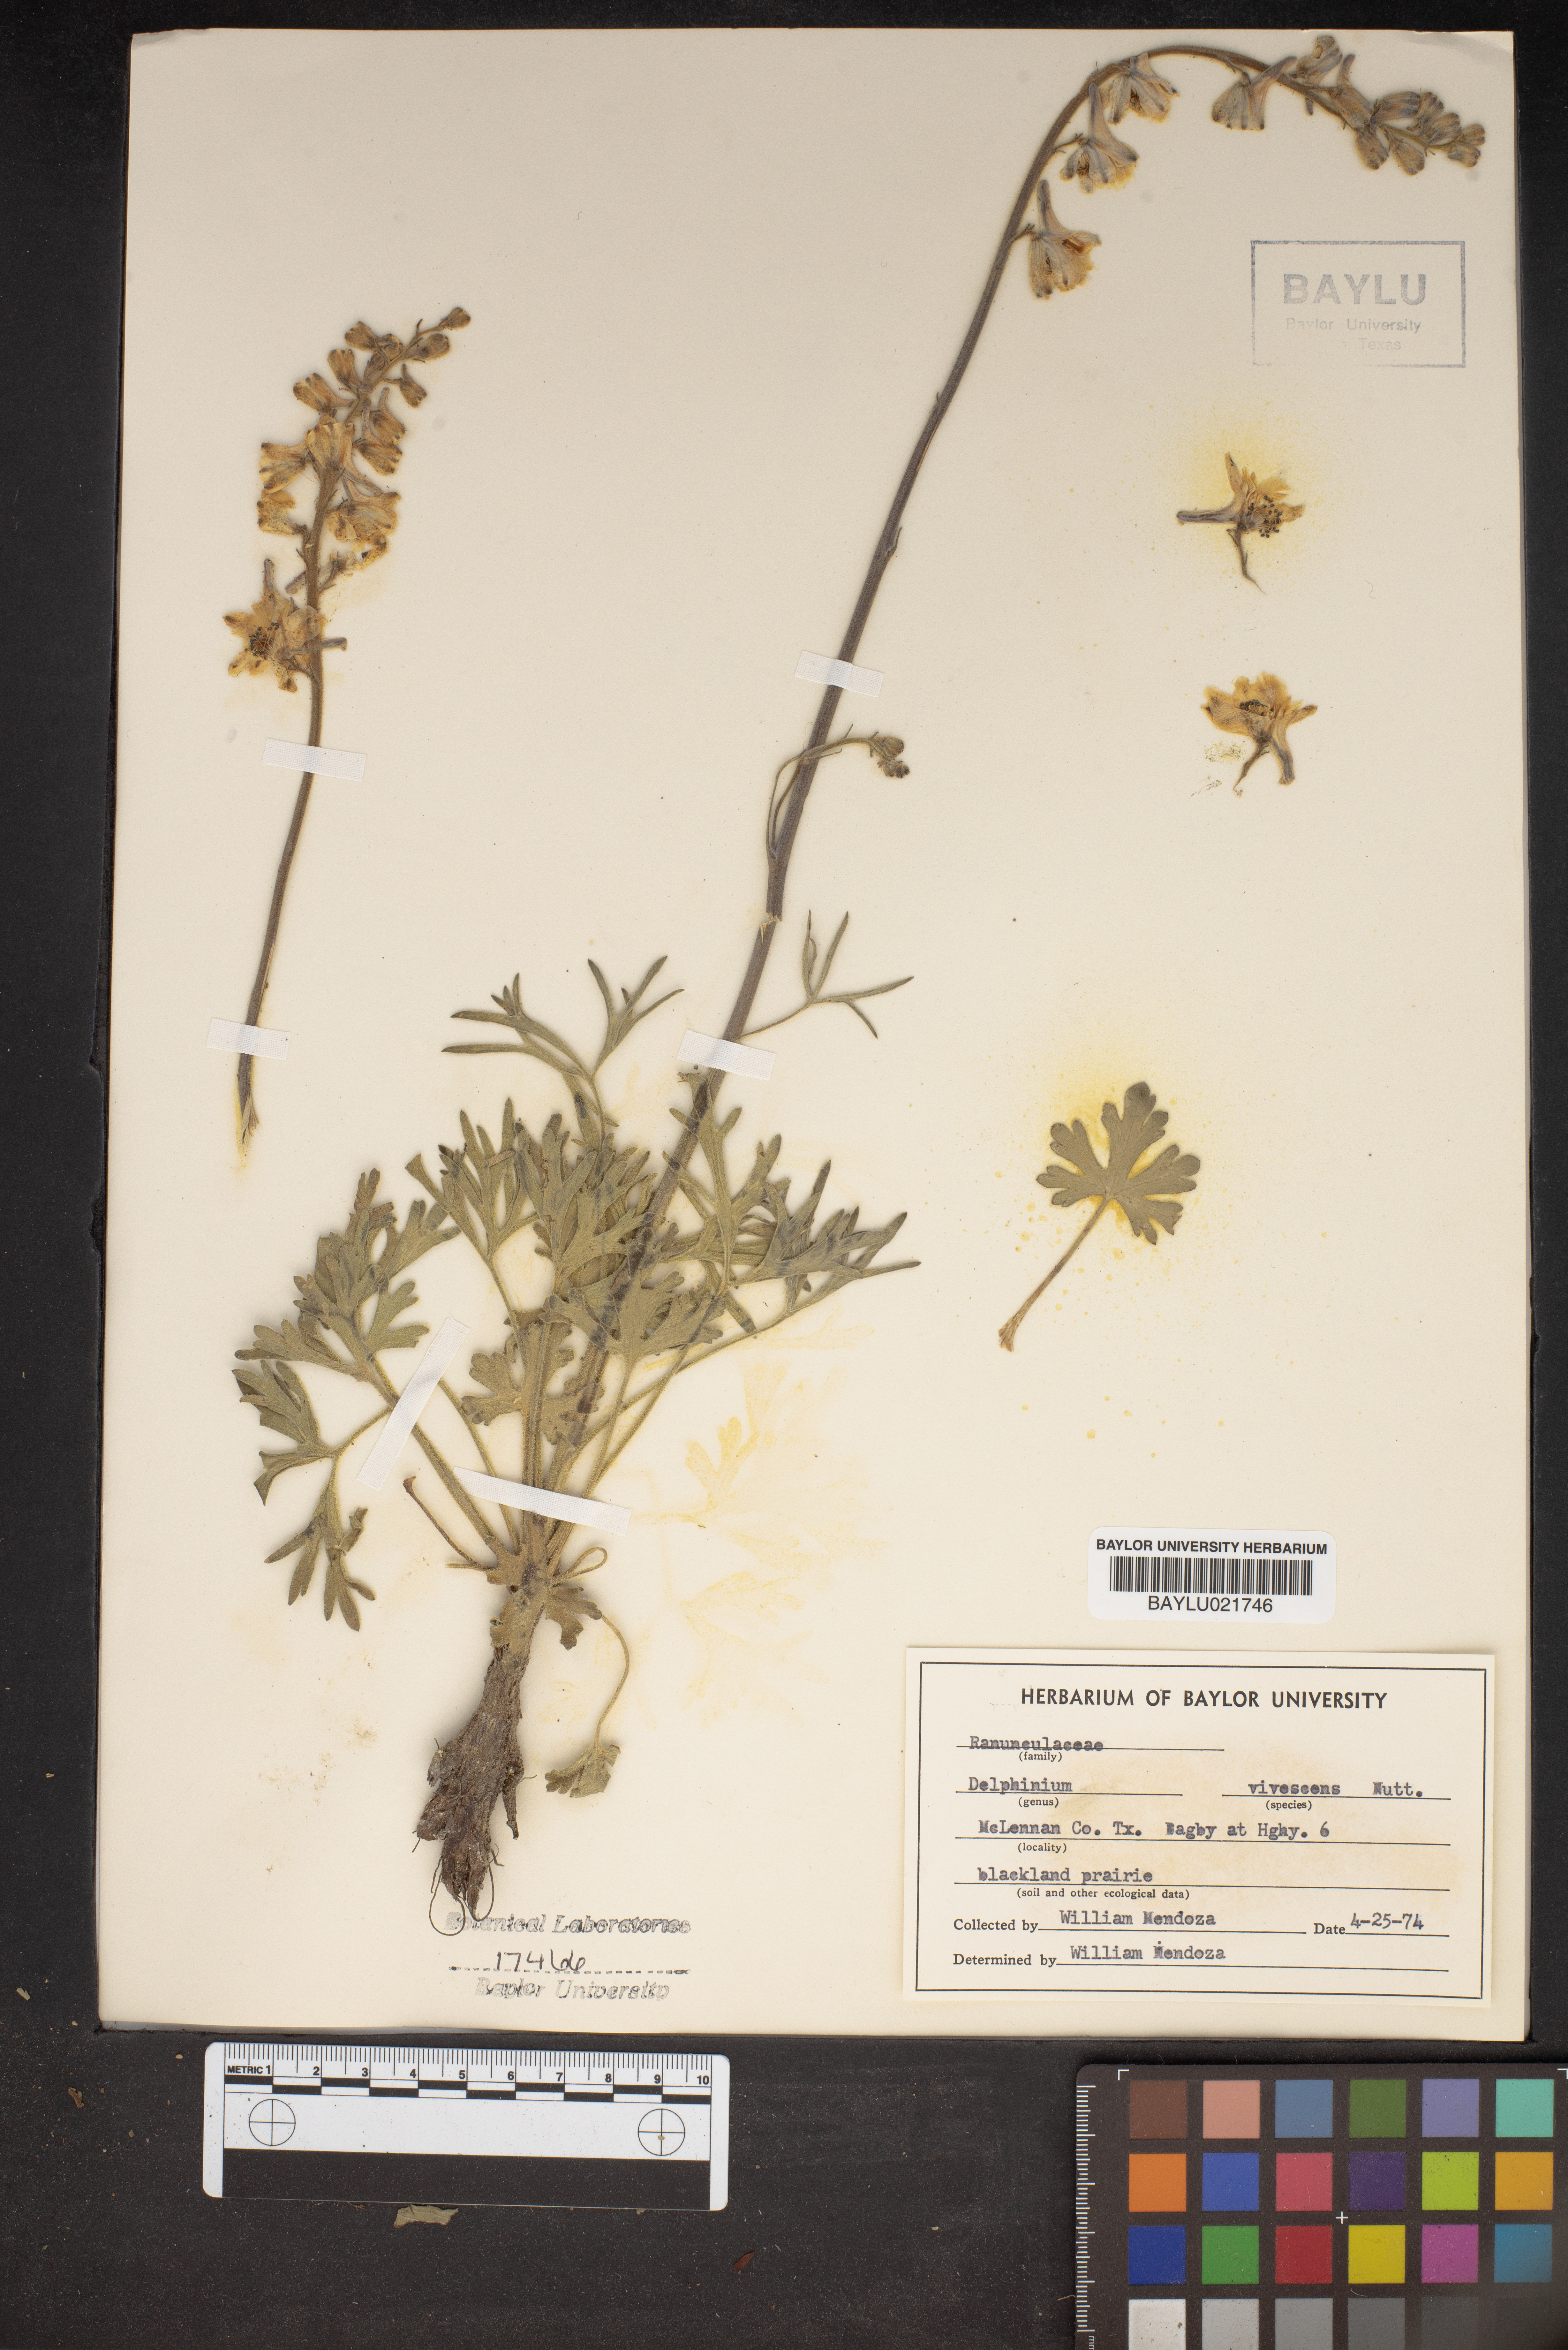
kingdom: Plantae
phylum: Tracheophyta
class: Magnoliopsida
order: Ranunculales
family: Ranunculaceae
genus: Delphinium
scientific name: Delphinium carolinianum
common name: Carolina larkspur
